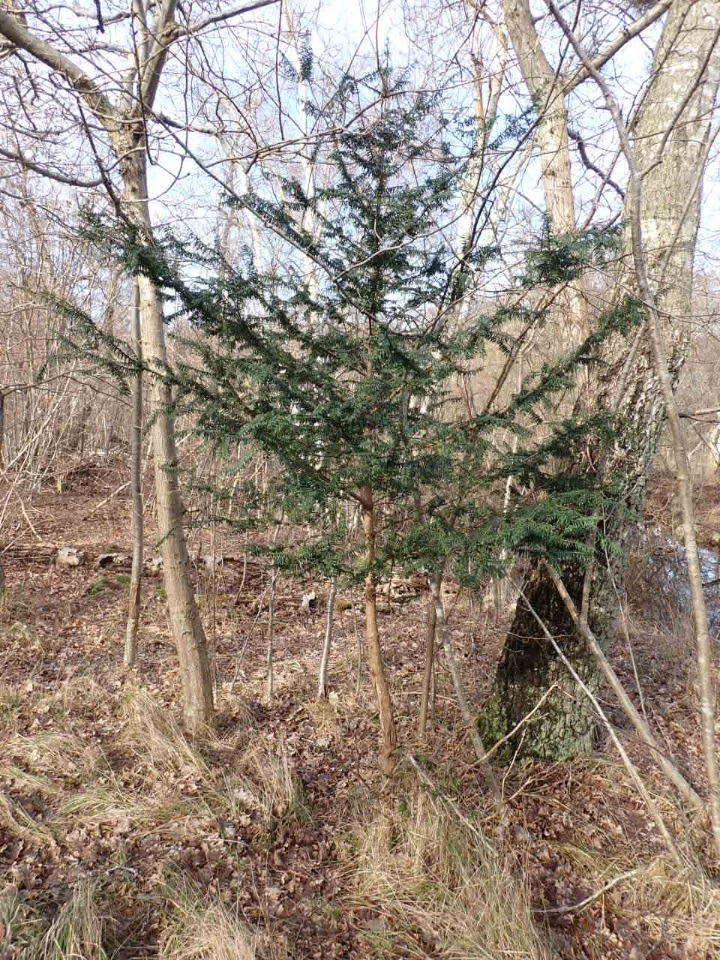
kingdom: Plantae
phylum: Tracheophyta
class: Pinopsida
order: Pinales
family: Taxaceae
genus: Taxus
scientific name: Taxus baccata
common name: Almindelig taks
